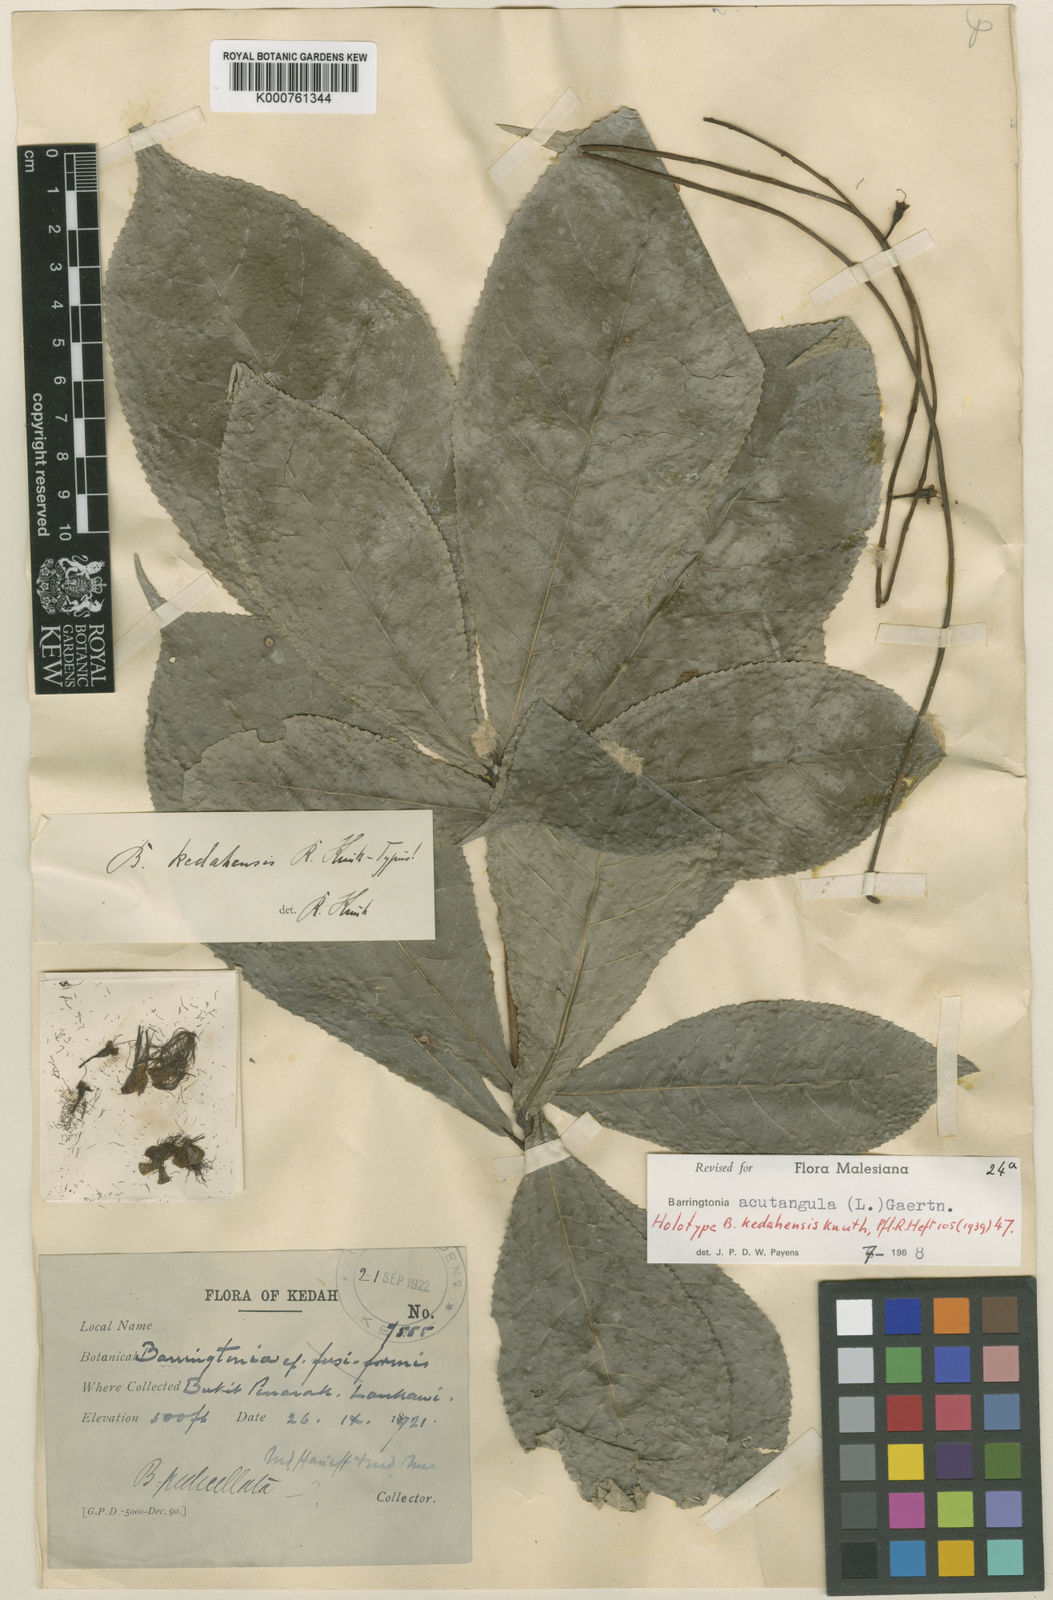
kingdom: Plantae
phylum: Tracheophyta
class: Magnoliopsida
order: Ericales
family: Lecythidaceae
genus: Barringtonia
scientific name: Barringtonia acutangula
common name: Freshwater mangrove
